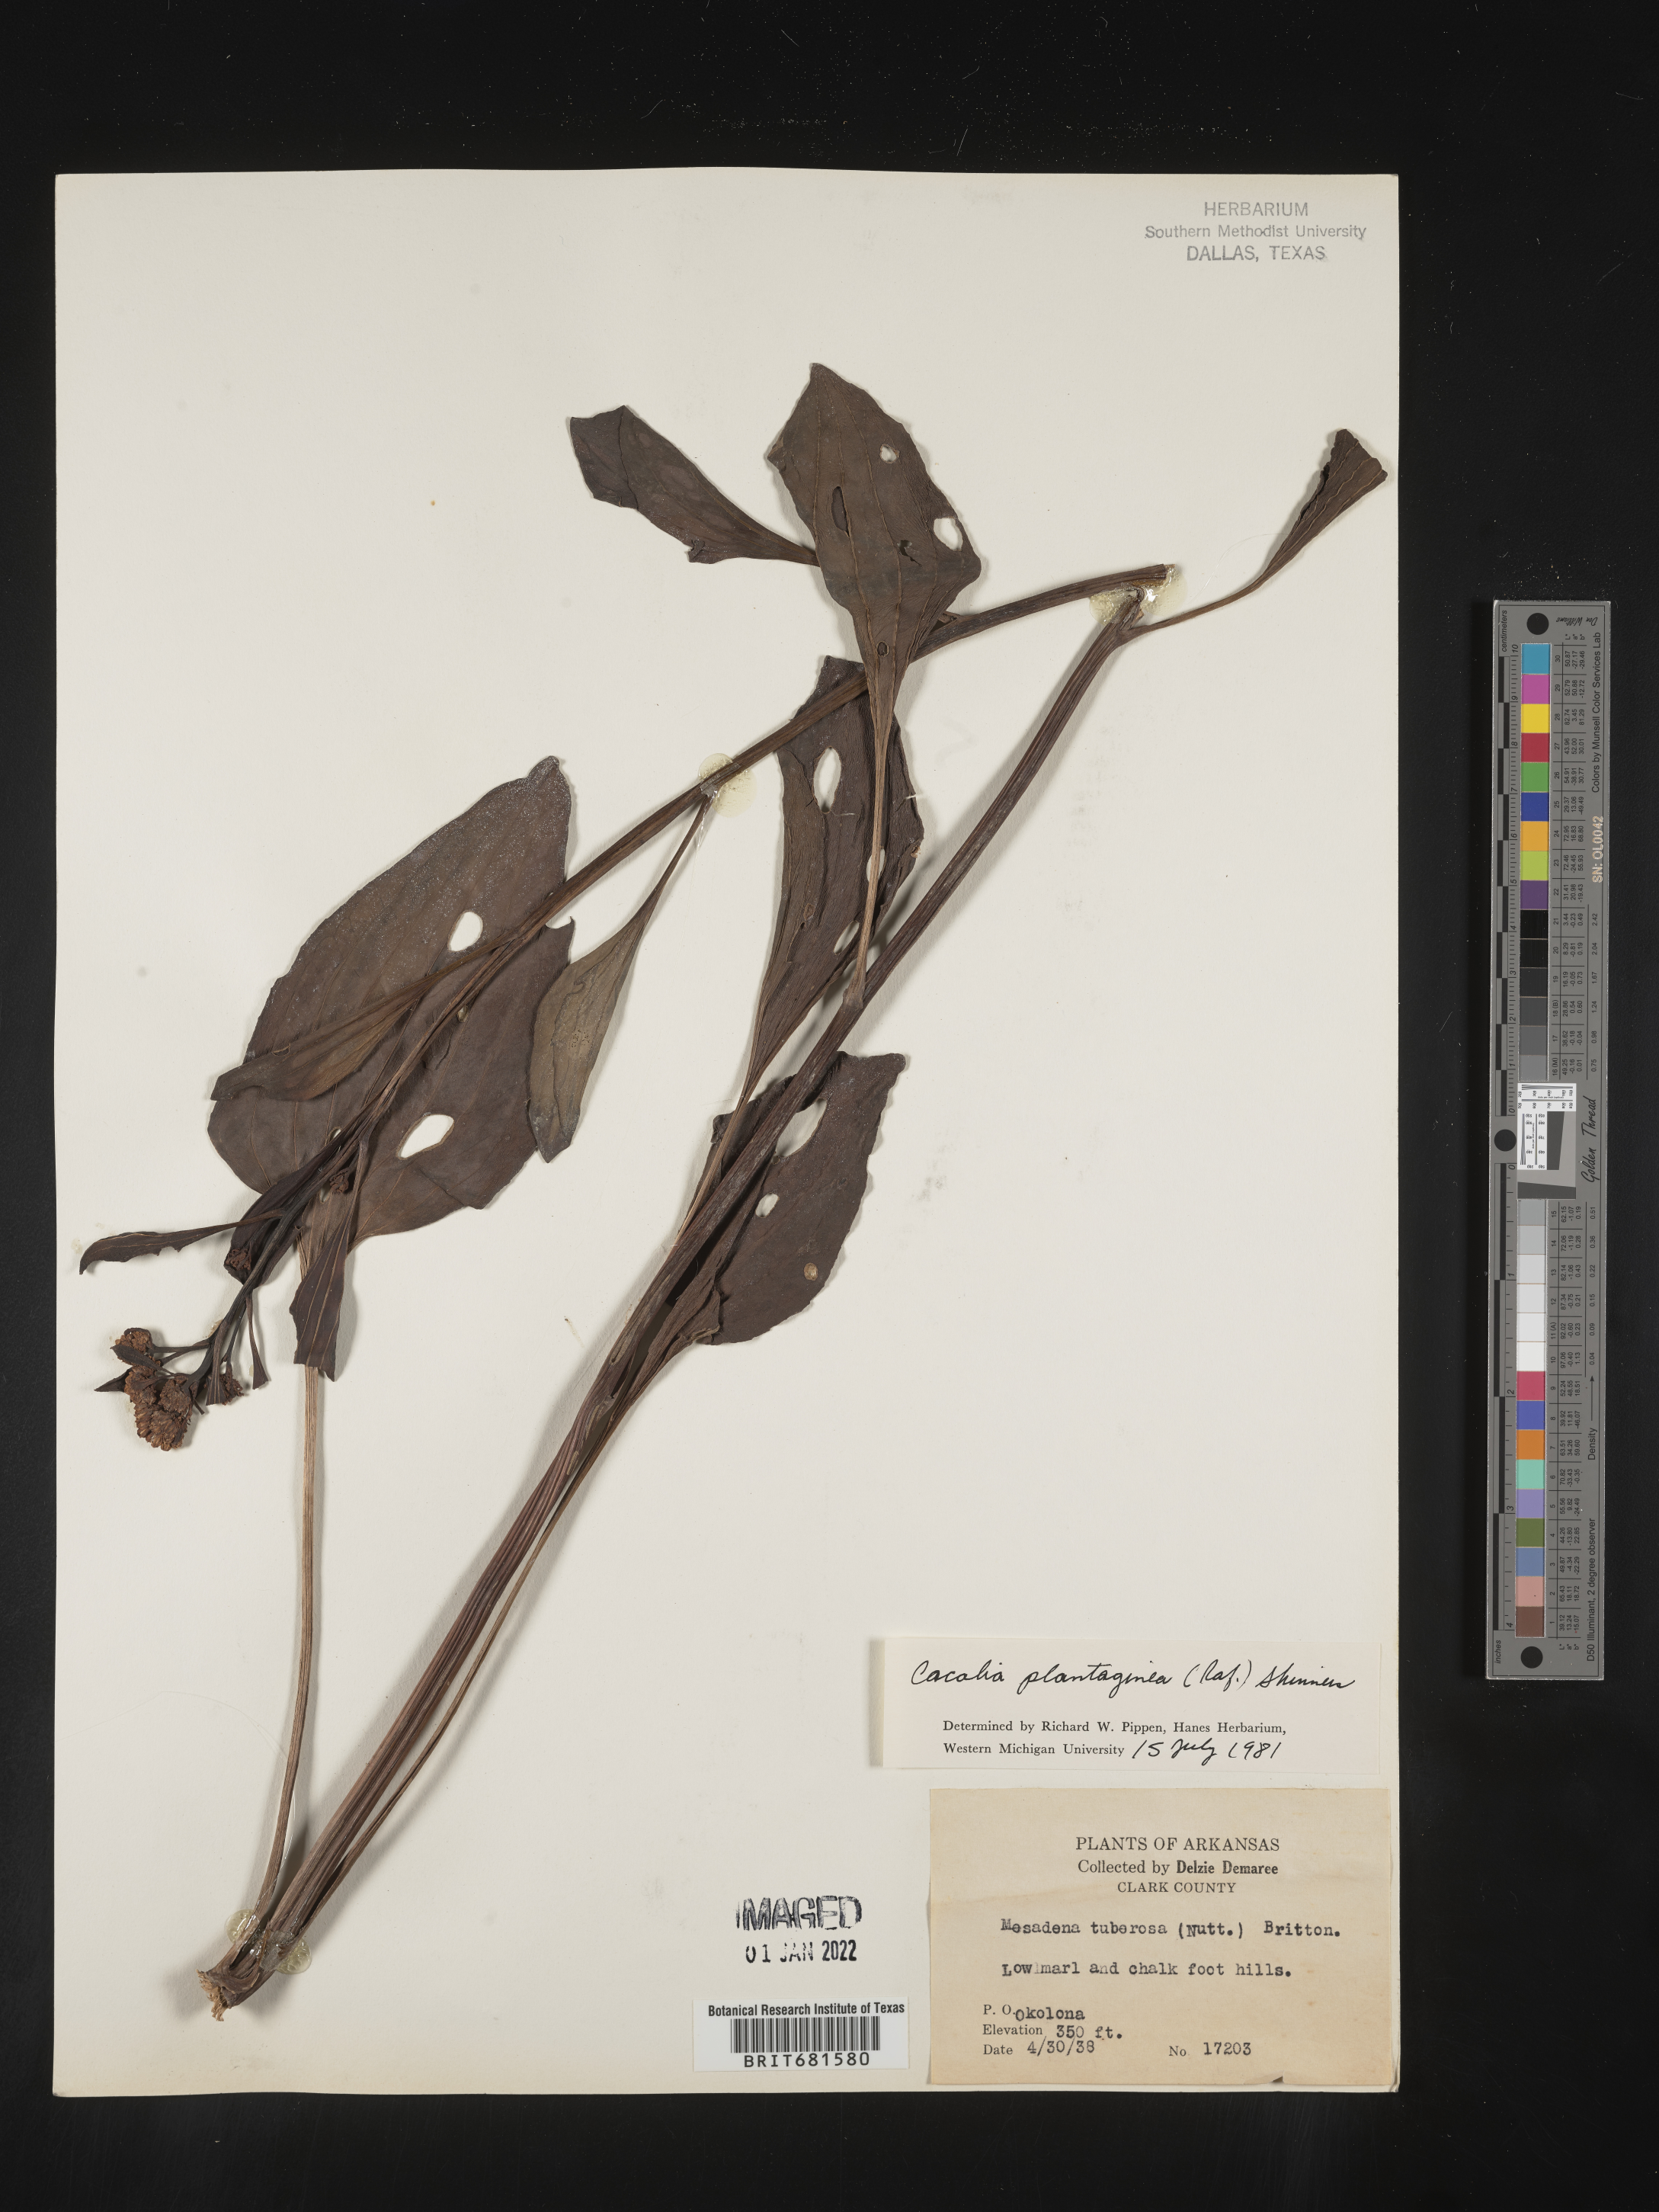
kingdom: Plantae
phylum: Tracheophyta
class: Magnoliopsida
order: Asterales
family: Asteraceae
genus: Arnoglossum
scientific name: Arnoglossum plantagineum
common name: Groove-stemmed indian-plantain
